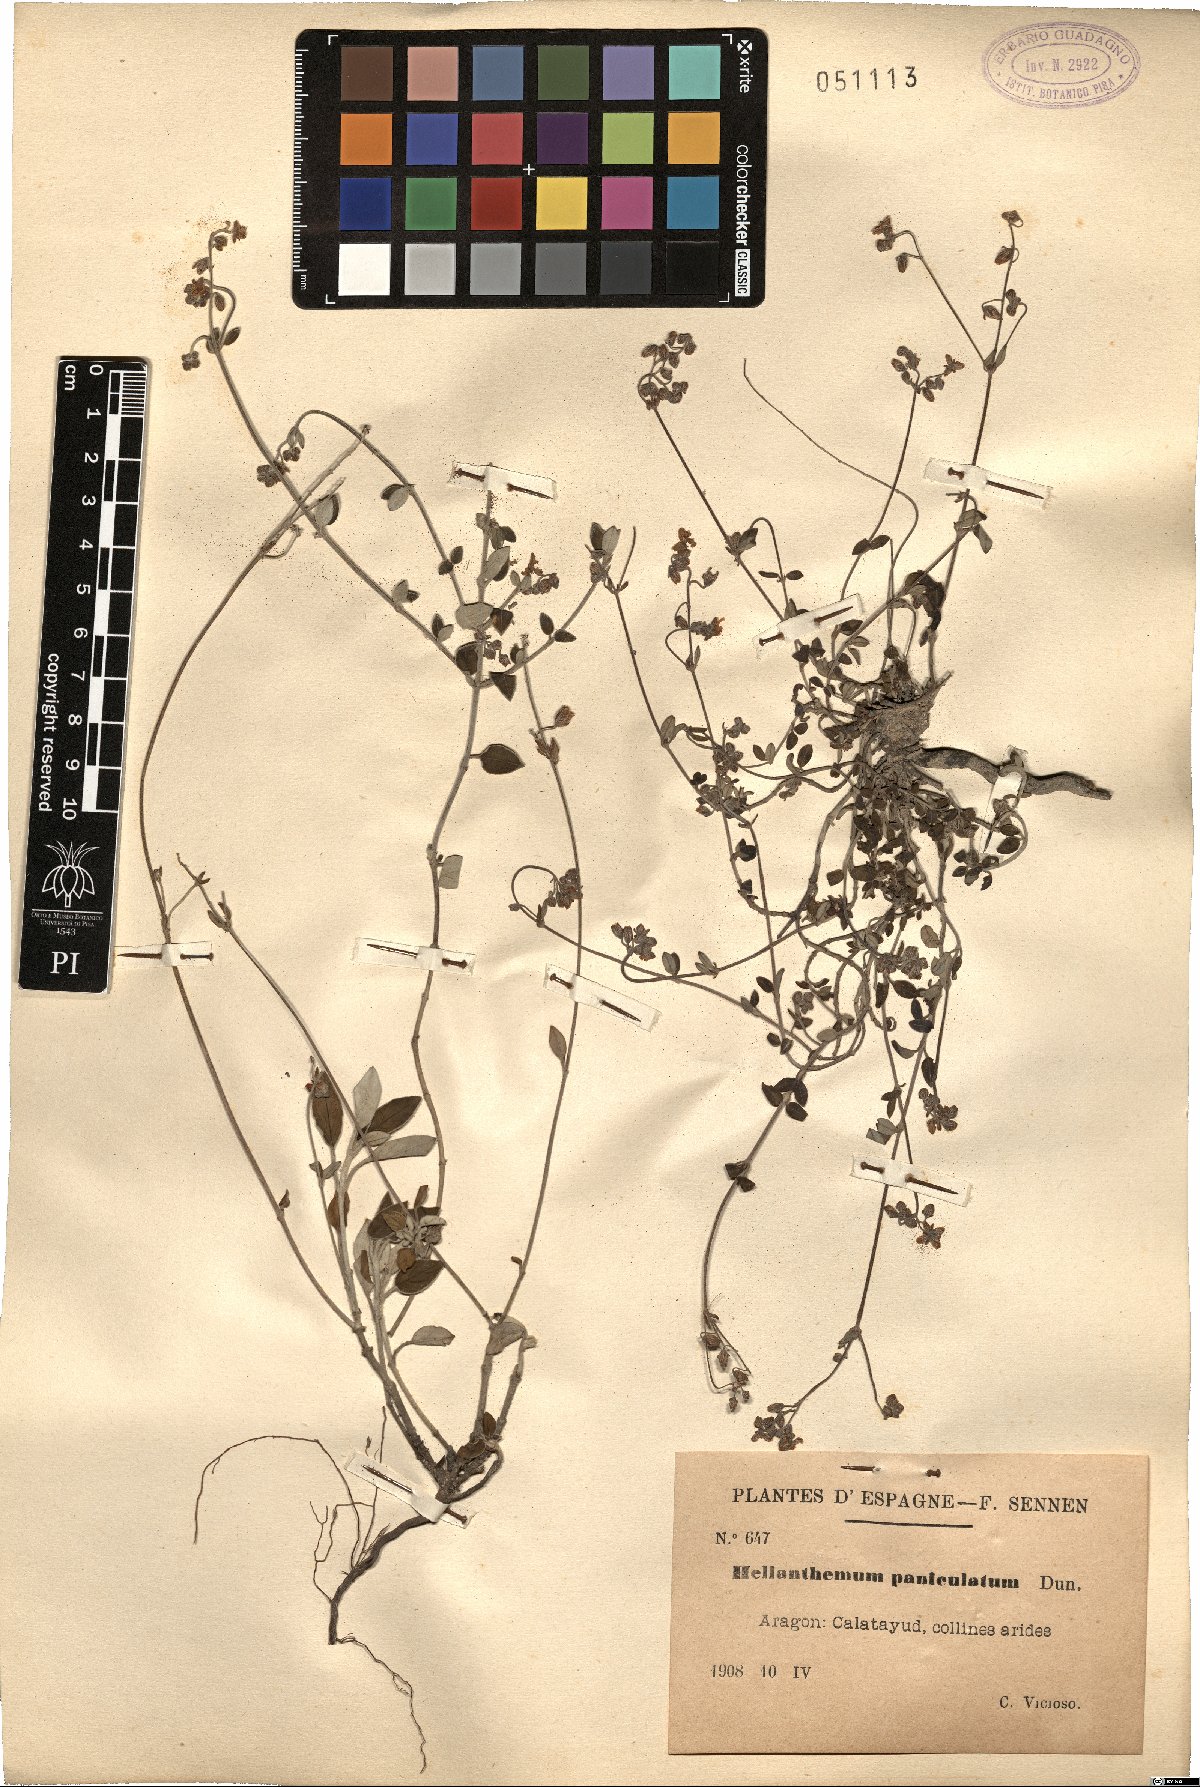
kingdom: Plantae
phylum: Tracheophyta
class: Magnoliopsida
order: Malvales
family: Cistaceae
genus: Helianthemum
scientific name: Helianthemum cinereum
